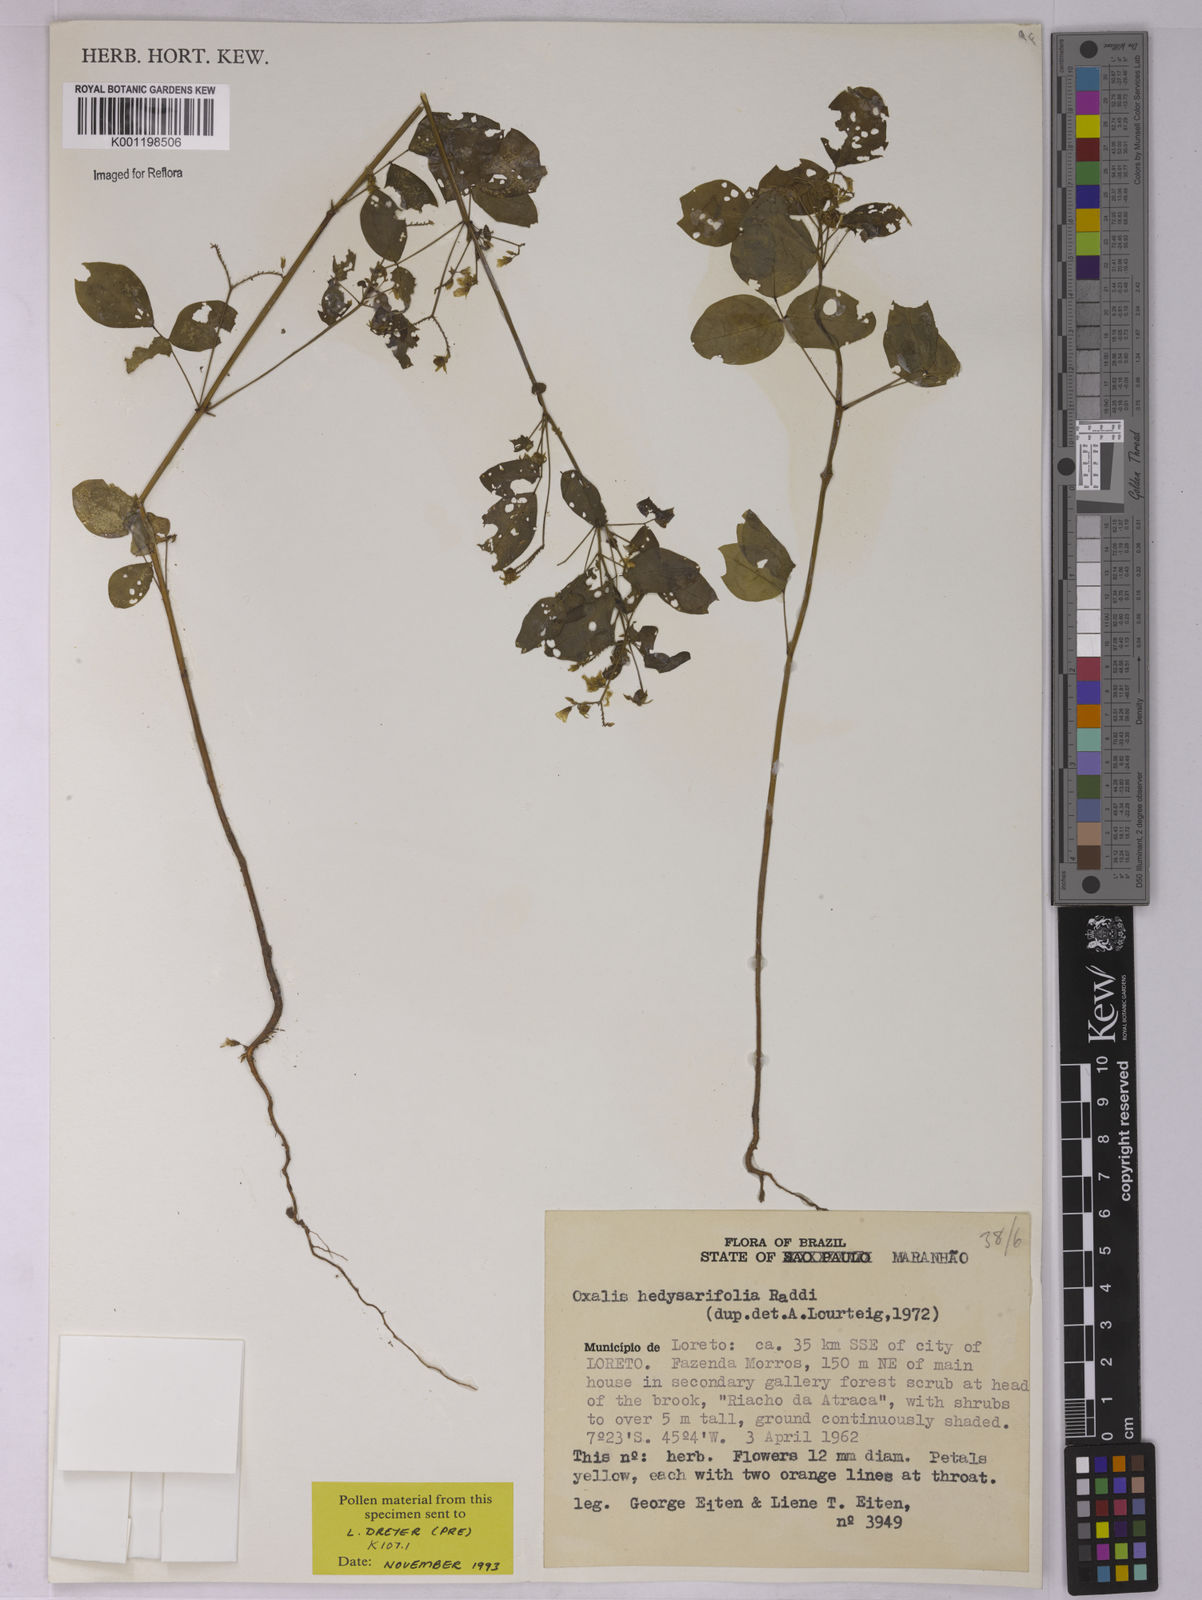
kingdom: Plantae
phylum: Tracheophyta
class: Magnoliopsida
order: Oxalidales
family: Oxalidaceae
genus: Oxalis
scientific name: Oxalis frutescens
